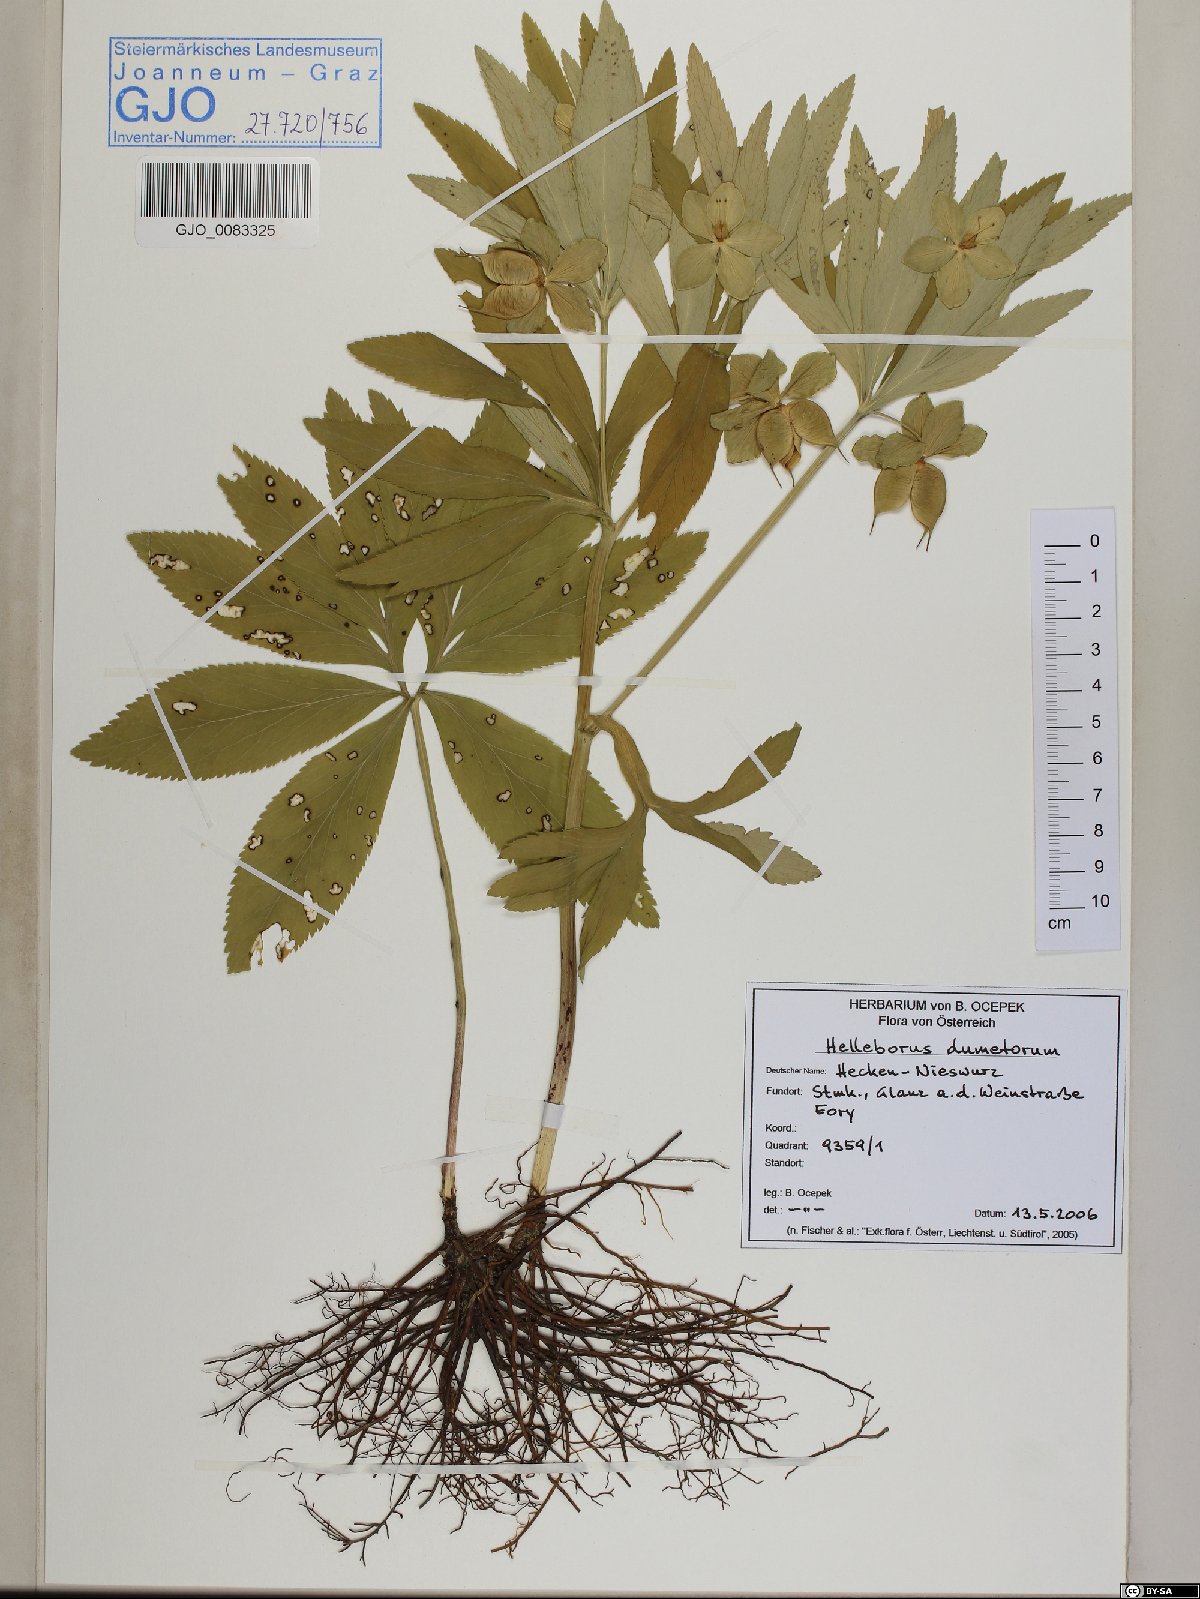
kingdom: Plantae
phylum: Tracheophyta
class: Magnoliopsida
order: Ranunculales
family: Ranunculaceae
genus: Helleborus
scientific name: Helleborus dumetorum
